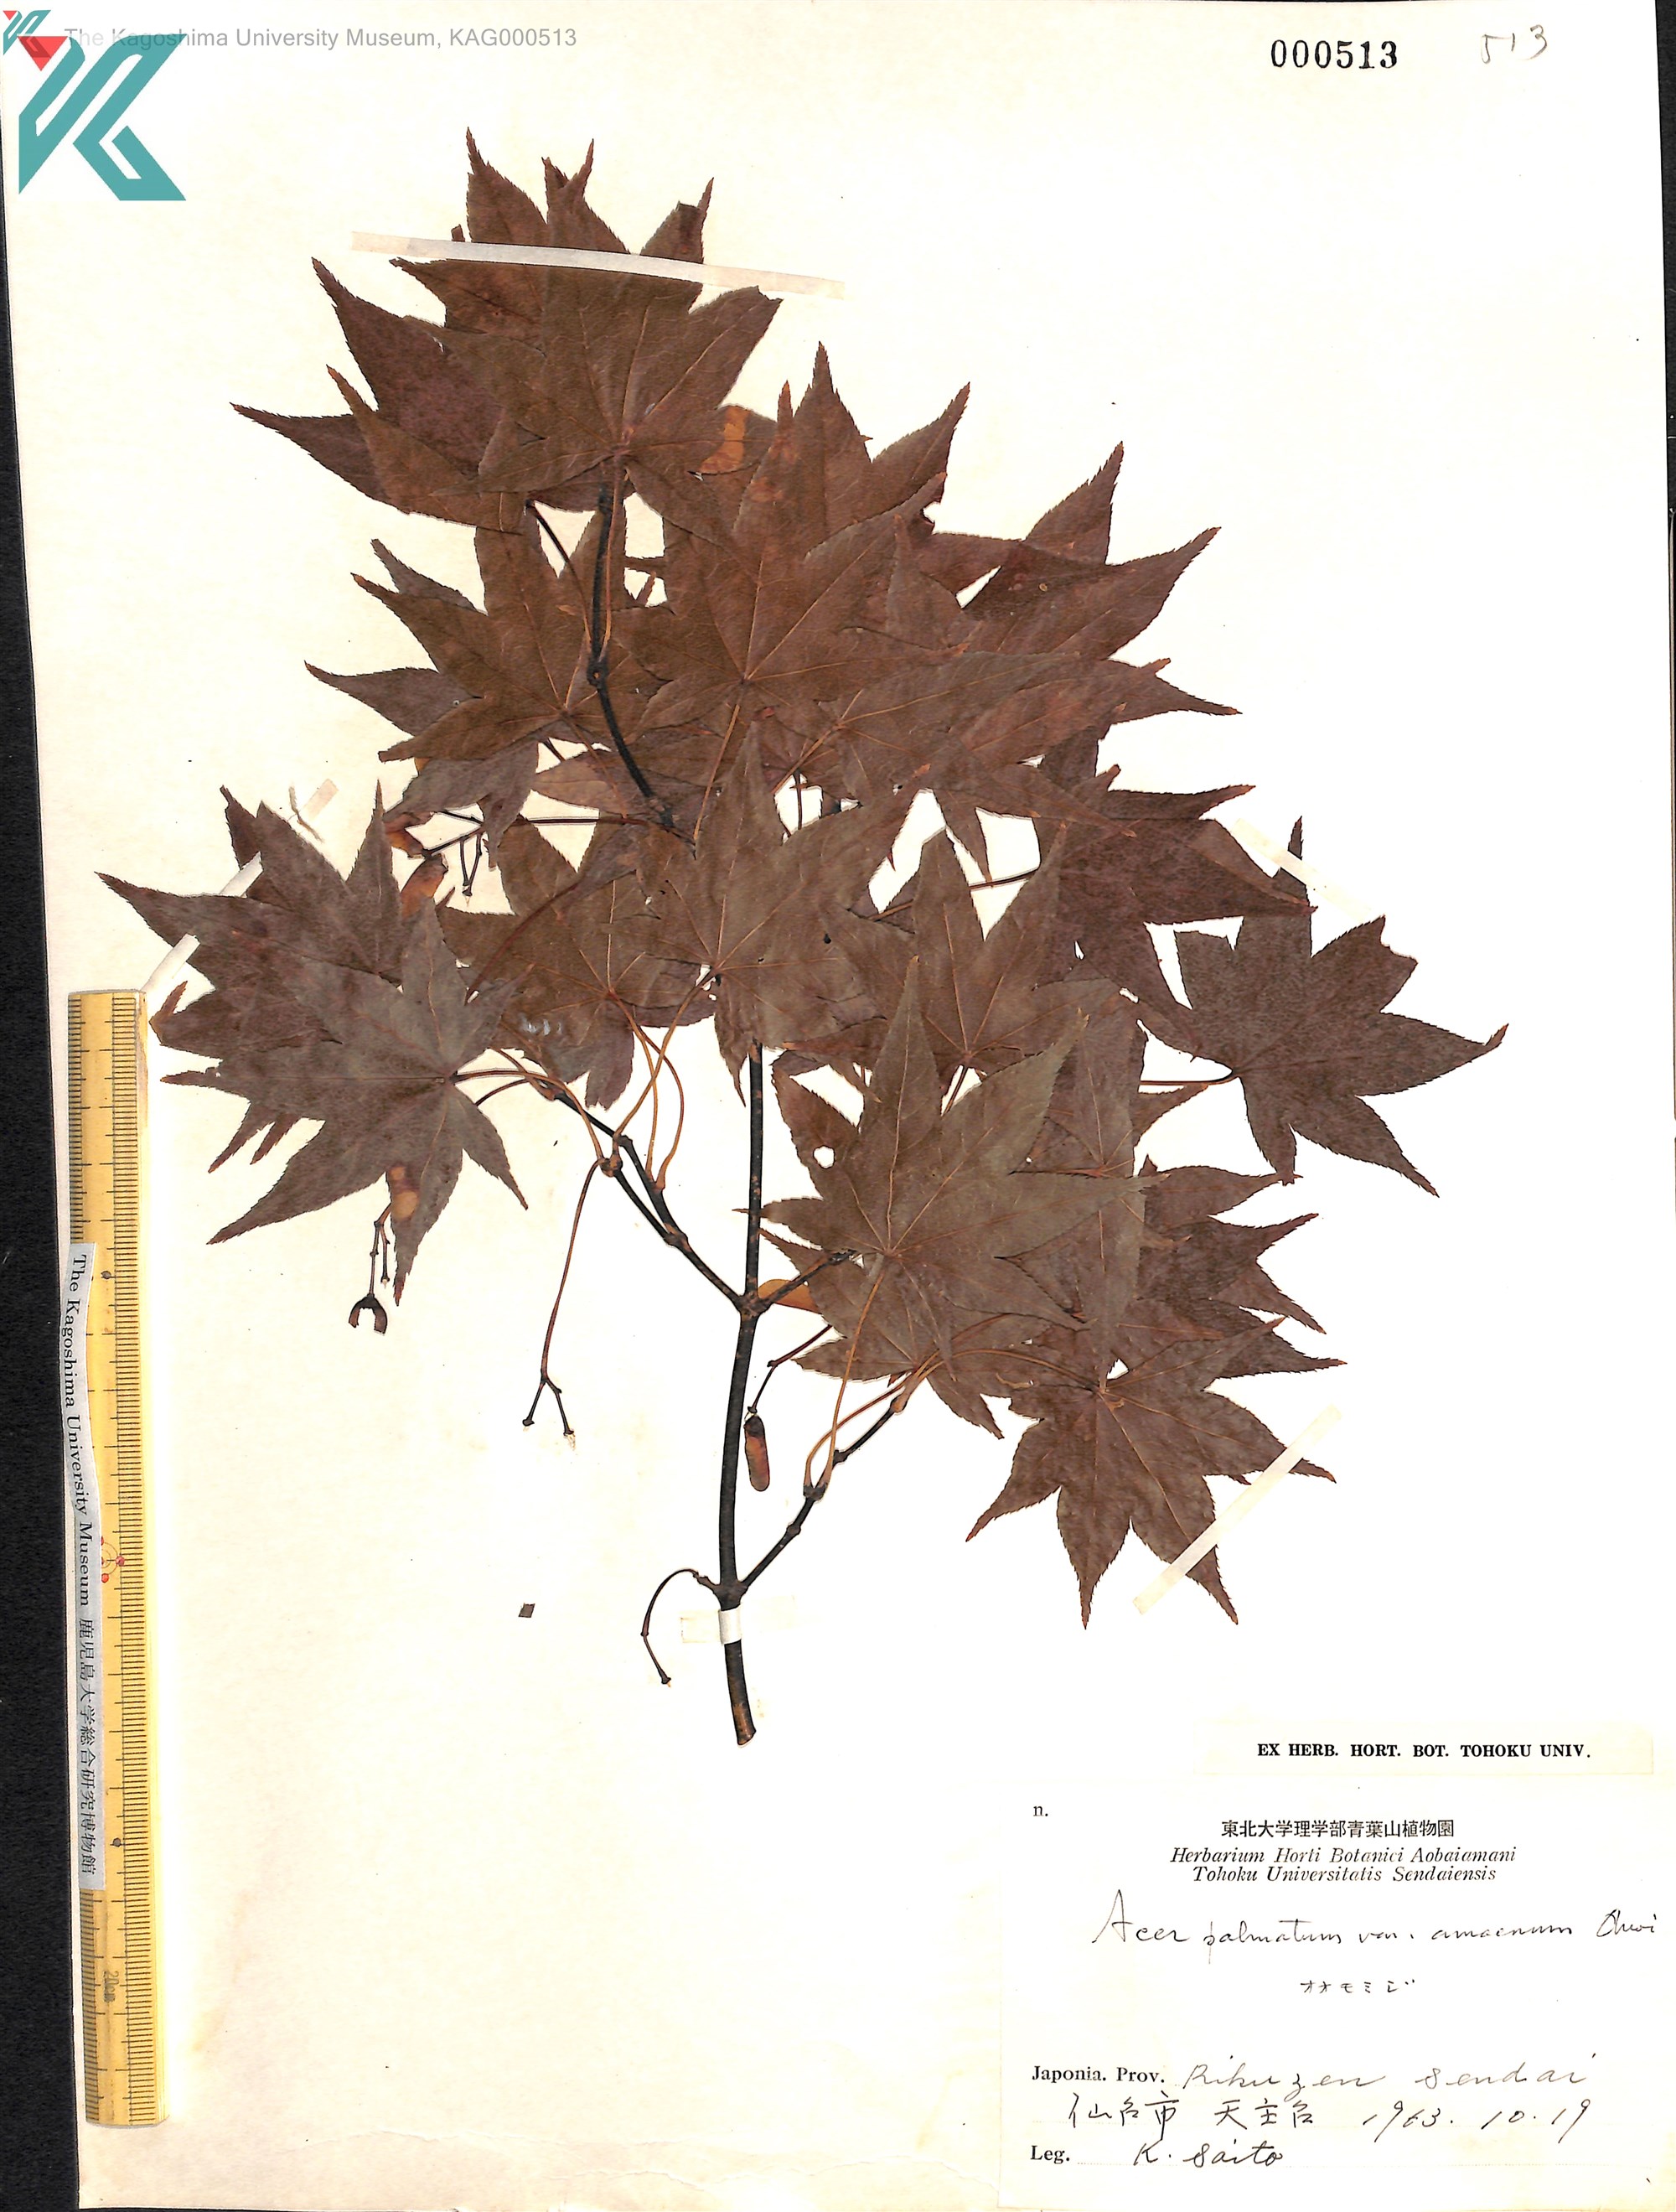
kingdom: Plantae
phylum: Tracheophyta
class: Magnoliopsida
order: Sapindales
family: Sapindaceae
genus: Acer
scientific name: Acer palmatum
